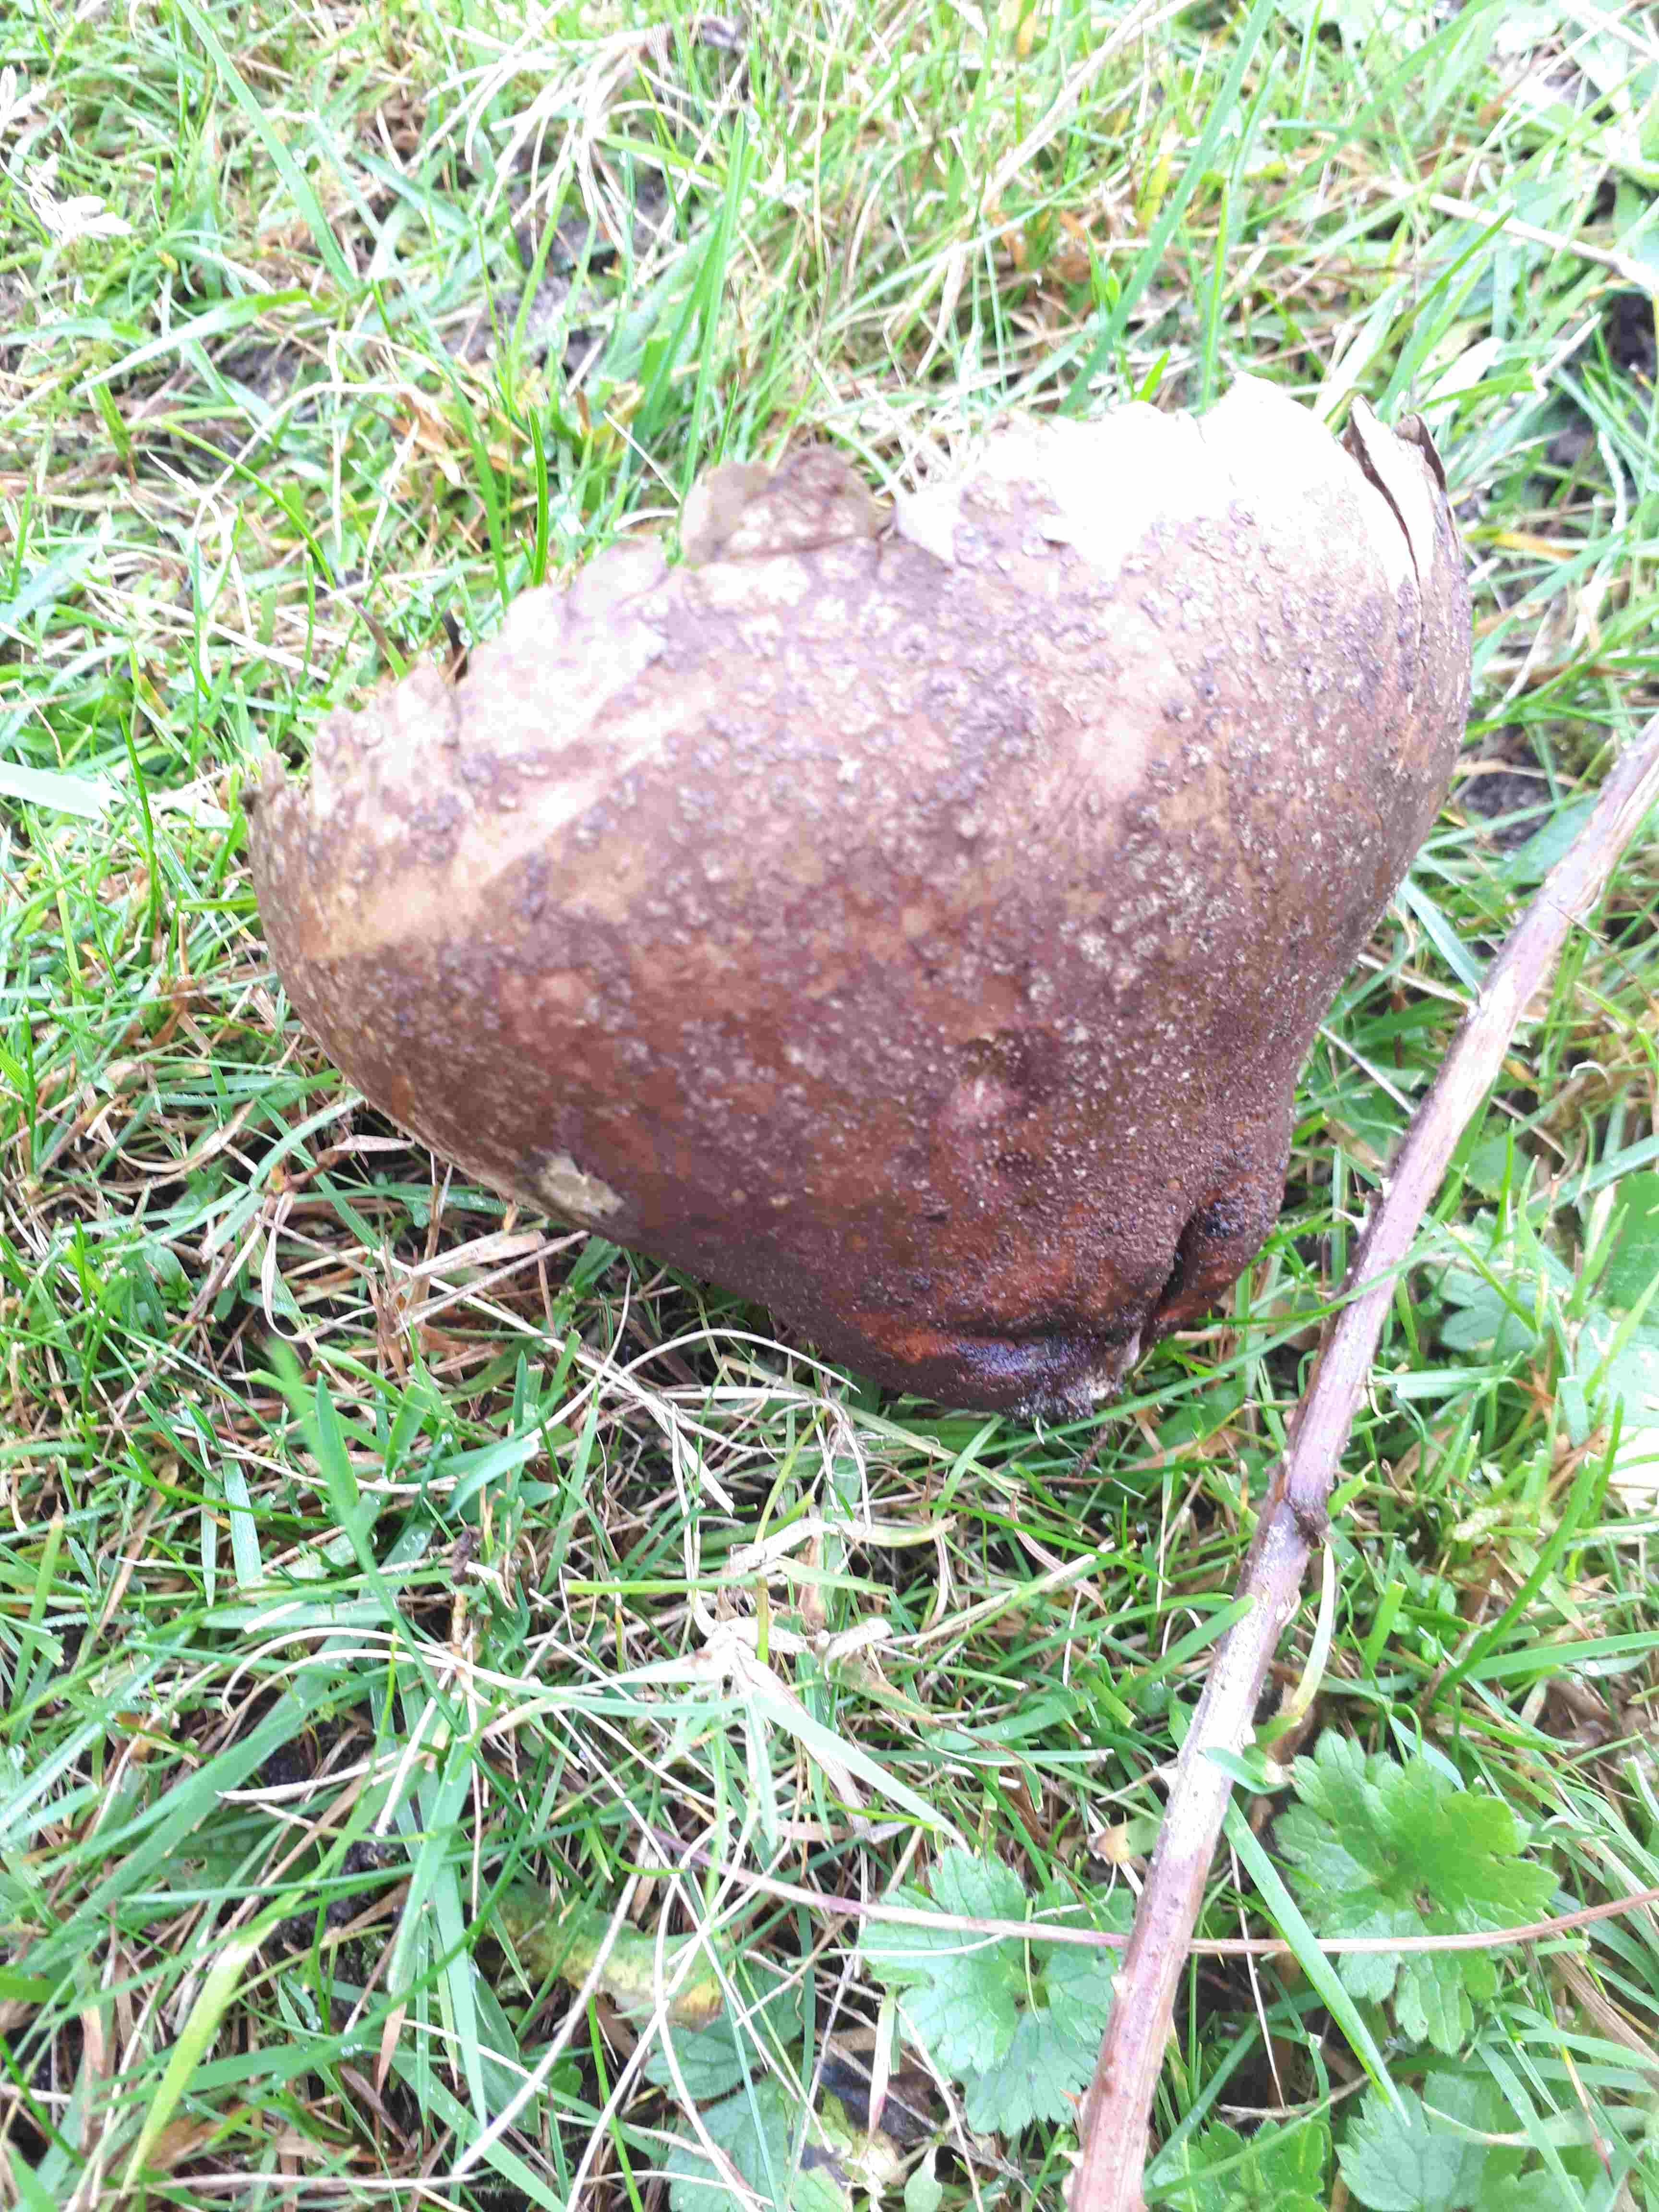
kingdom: Fungi
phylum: Basidiomycota
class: Agaricomycetes
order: Agaricales
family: Lycoperdaceae
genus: Bovistella
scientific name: Bovistella utriformis
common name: skællet støvbold
